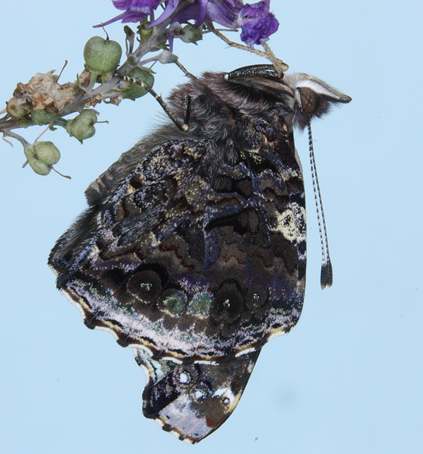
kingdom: Animalia
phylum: Arthropoda
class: Insecta
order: Lepidoptera
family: Nymphalidae
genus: Vanessa
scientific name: Vanessa atalanta
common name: Red Admiral
